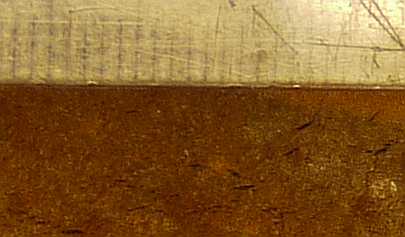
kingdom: Fungi
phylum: Basidiomycota
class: Agaricomycetes
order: Hymenochaetales
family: Hymenochaetaceae
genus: Fomitiporia
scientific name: Fomitiporia punctata
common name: pude-ildporesvamp
